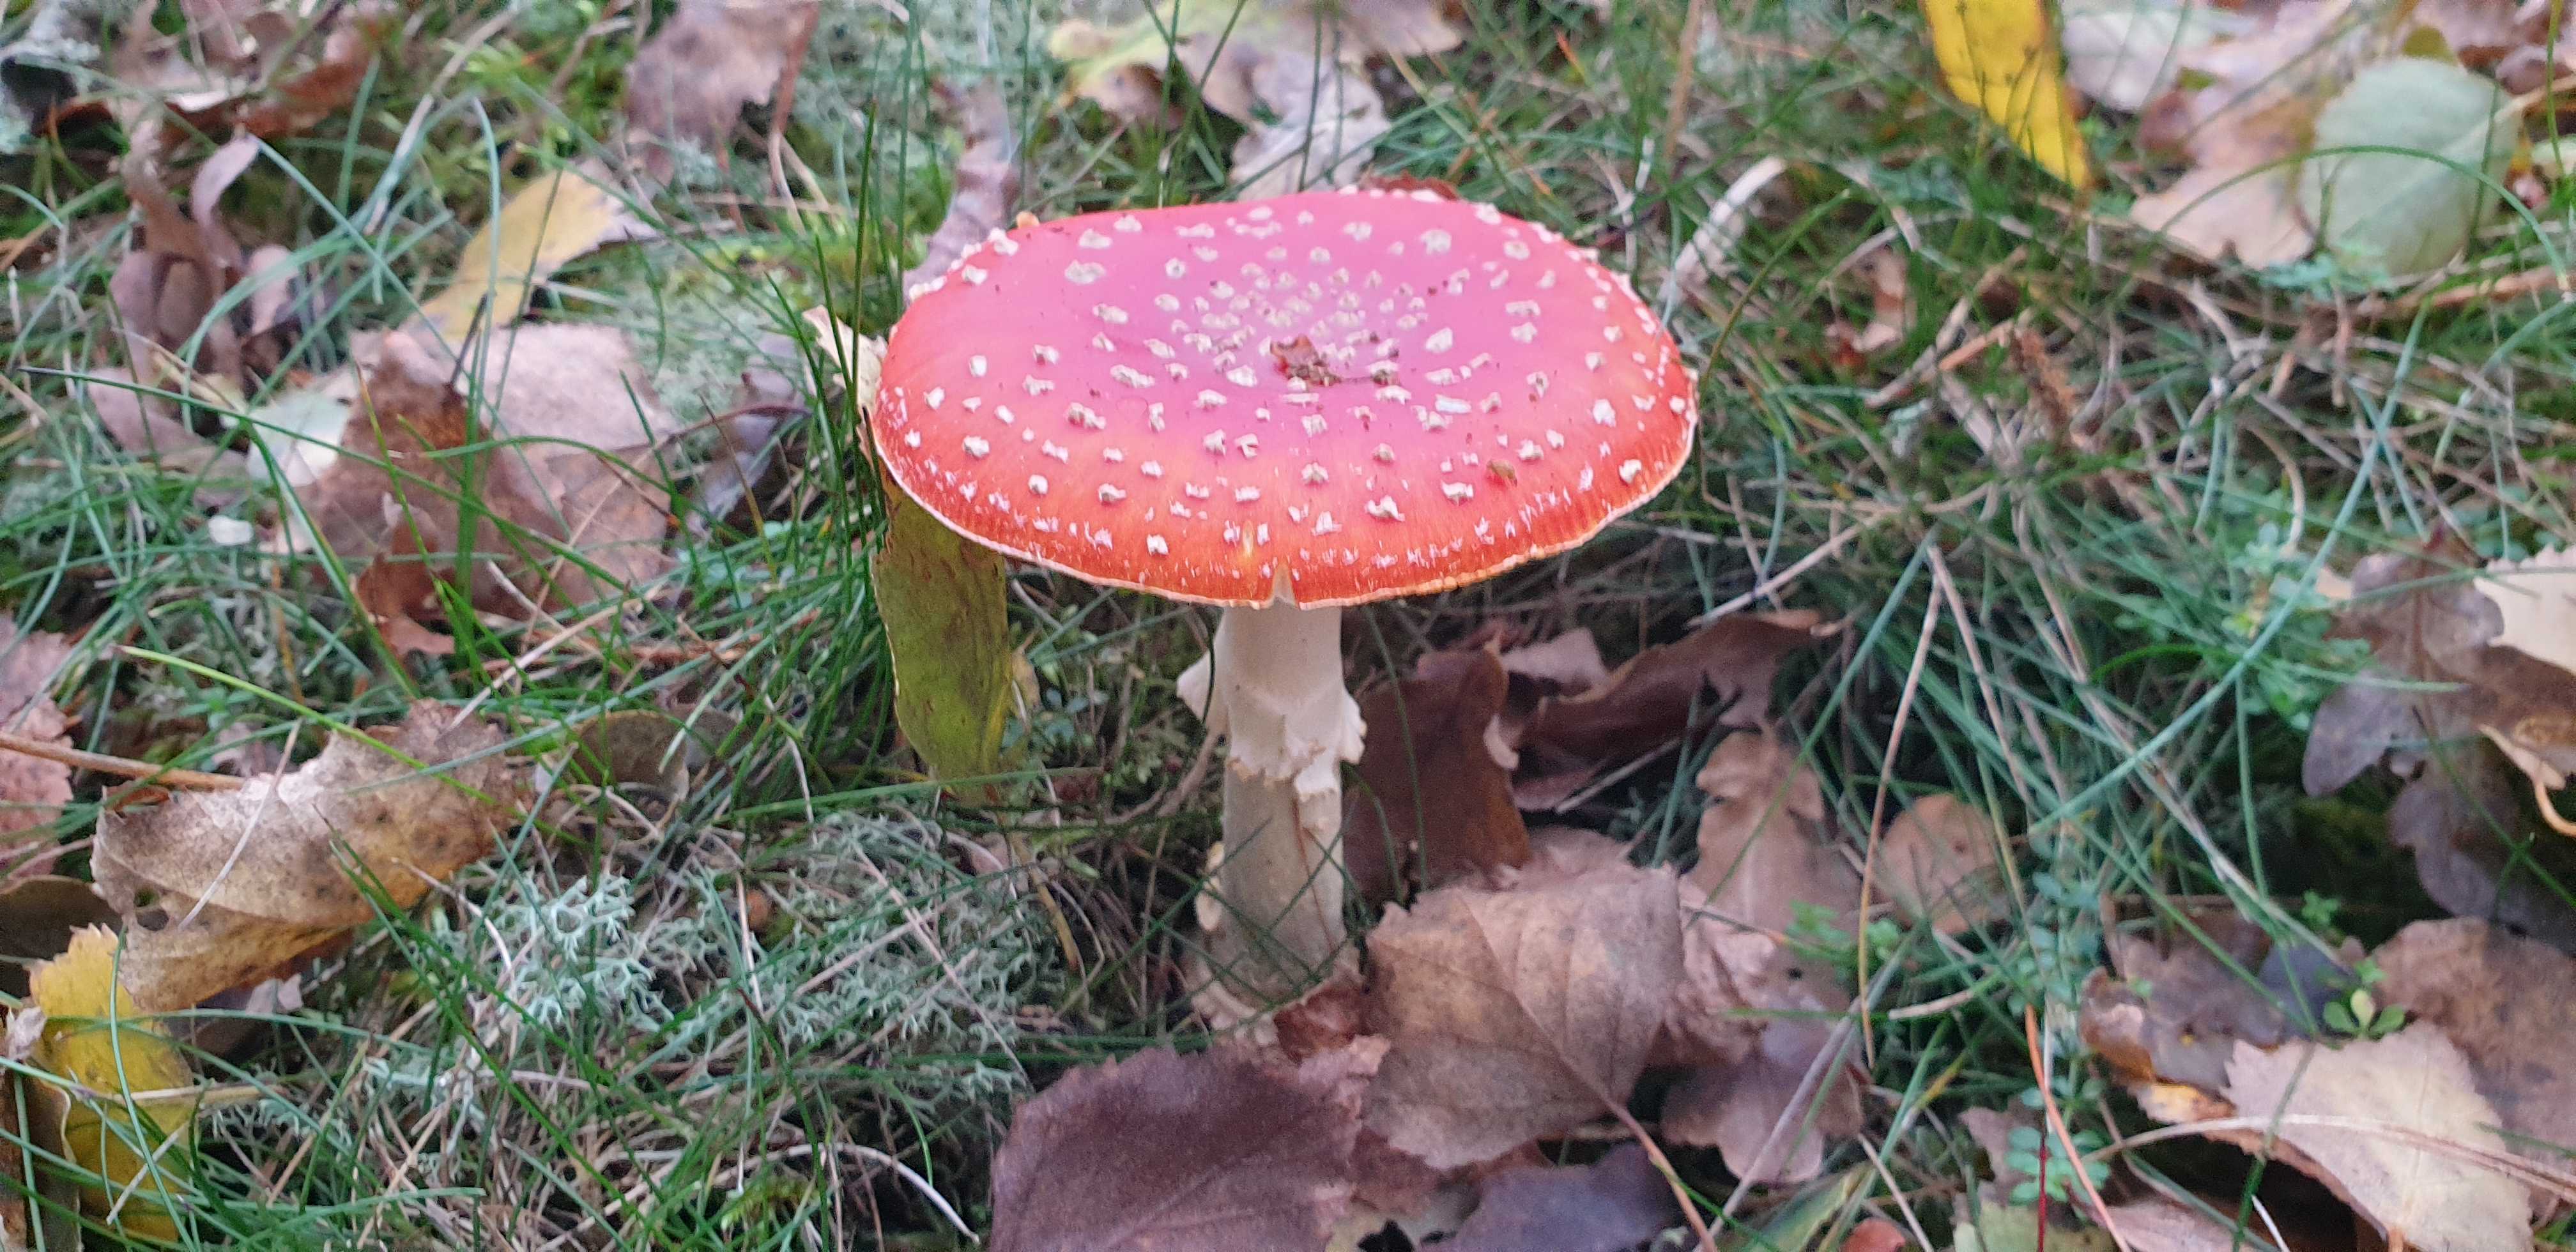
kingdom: Fungi
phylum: Basidiomycota
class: Agaricomycetes
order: Agaricales
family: Amanitaceae
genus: Amanita
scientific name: Amanita muscaria
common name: rød fluesvamp
